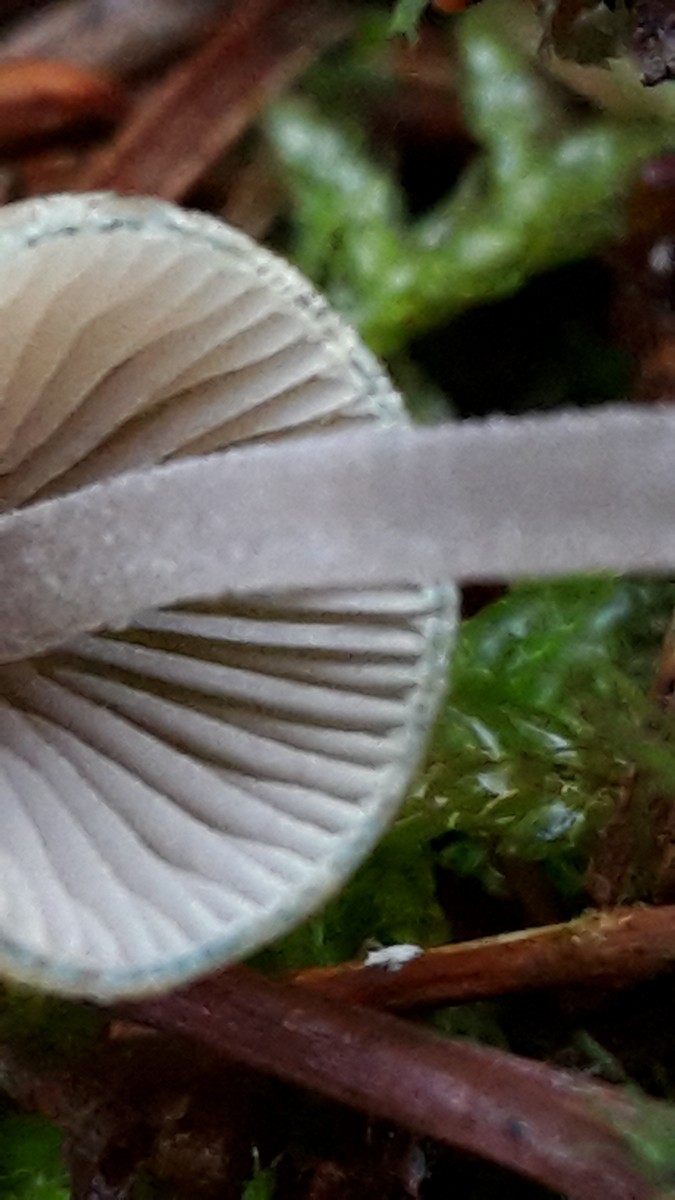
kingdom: Fungi
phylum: Basidiomycota
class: Agaricomycetes
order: Agaricales
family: Mycenaceae
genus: Mycena
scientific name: Mycena amicta
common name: iris-huesvamp
